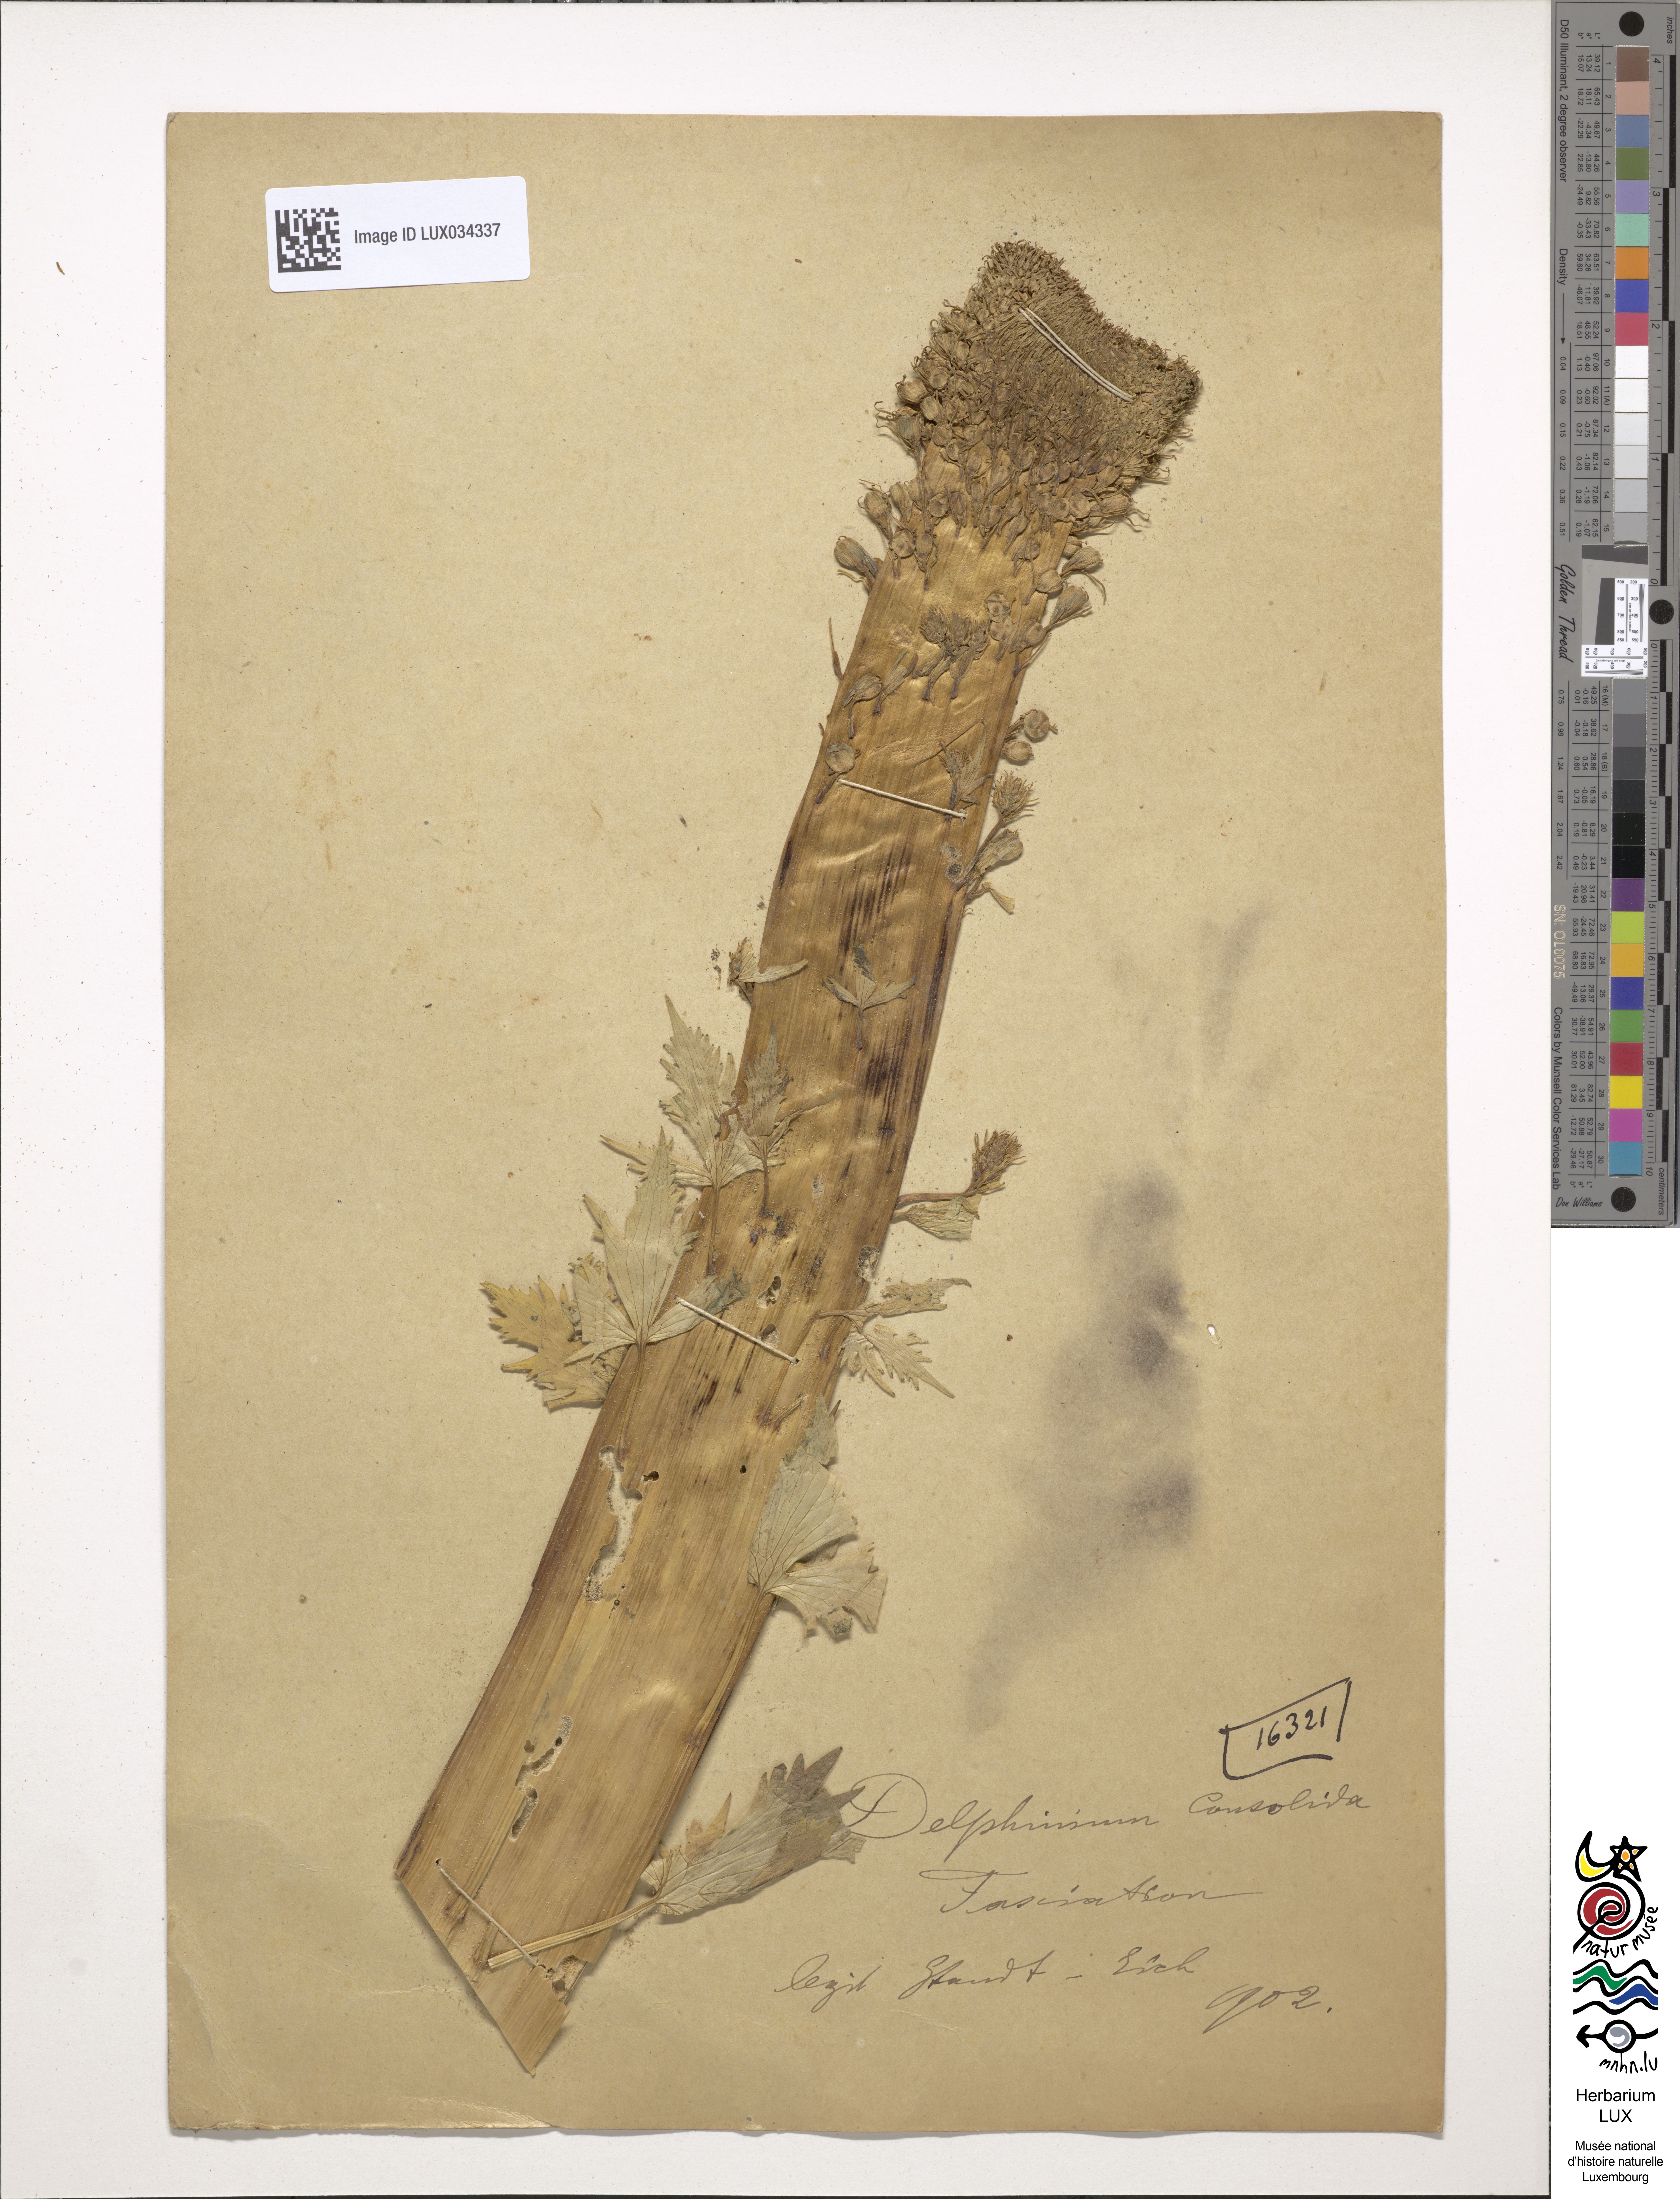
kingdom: Plantae
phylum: Tracheophyta
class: Magnoliopsida
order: Ranunculales
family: Ranunculaceae
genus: Delphinium
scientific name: Delphinium consolida
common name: Branching larkspur
